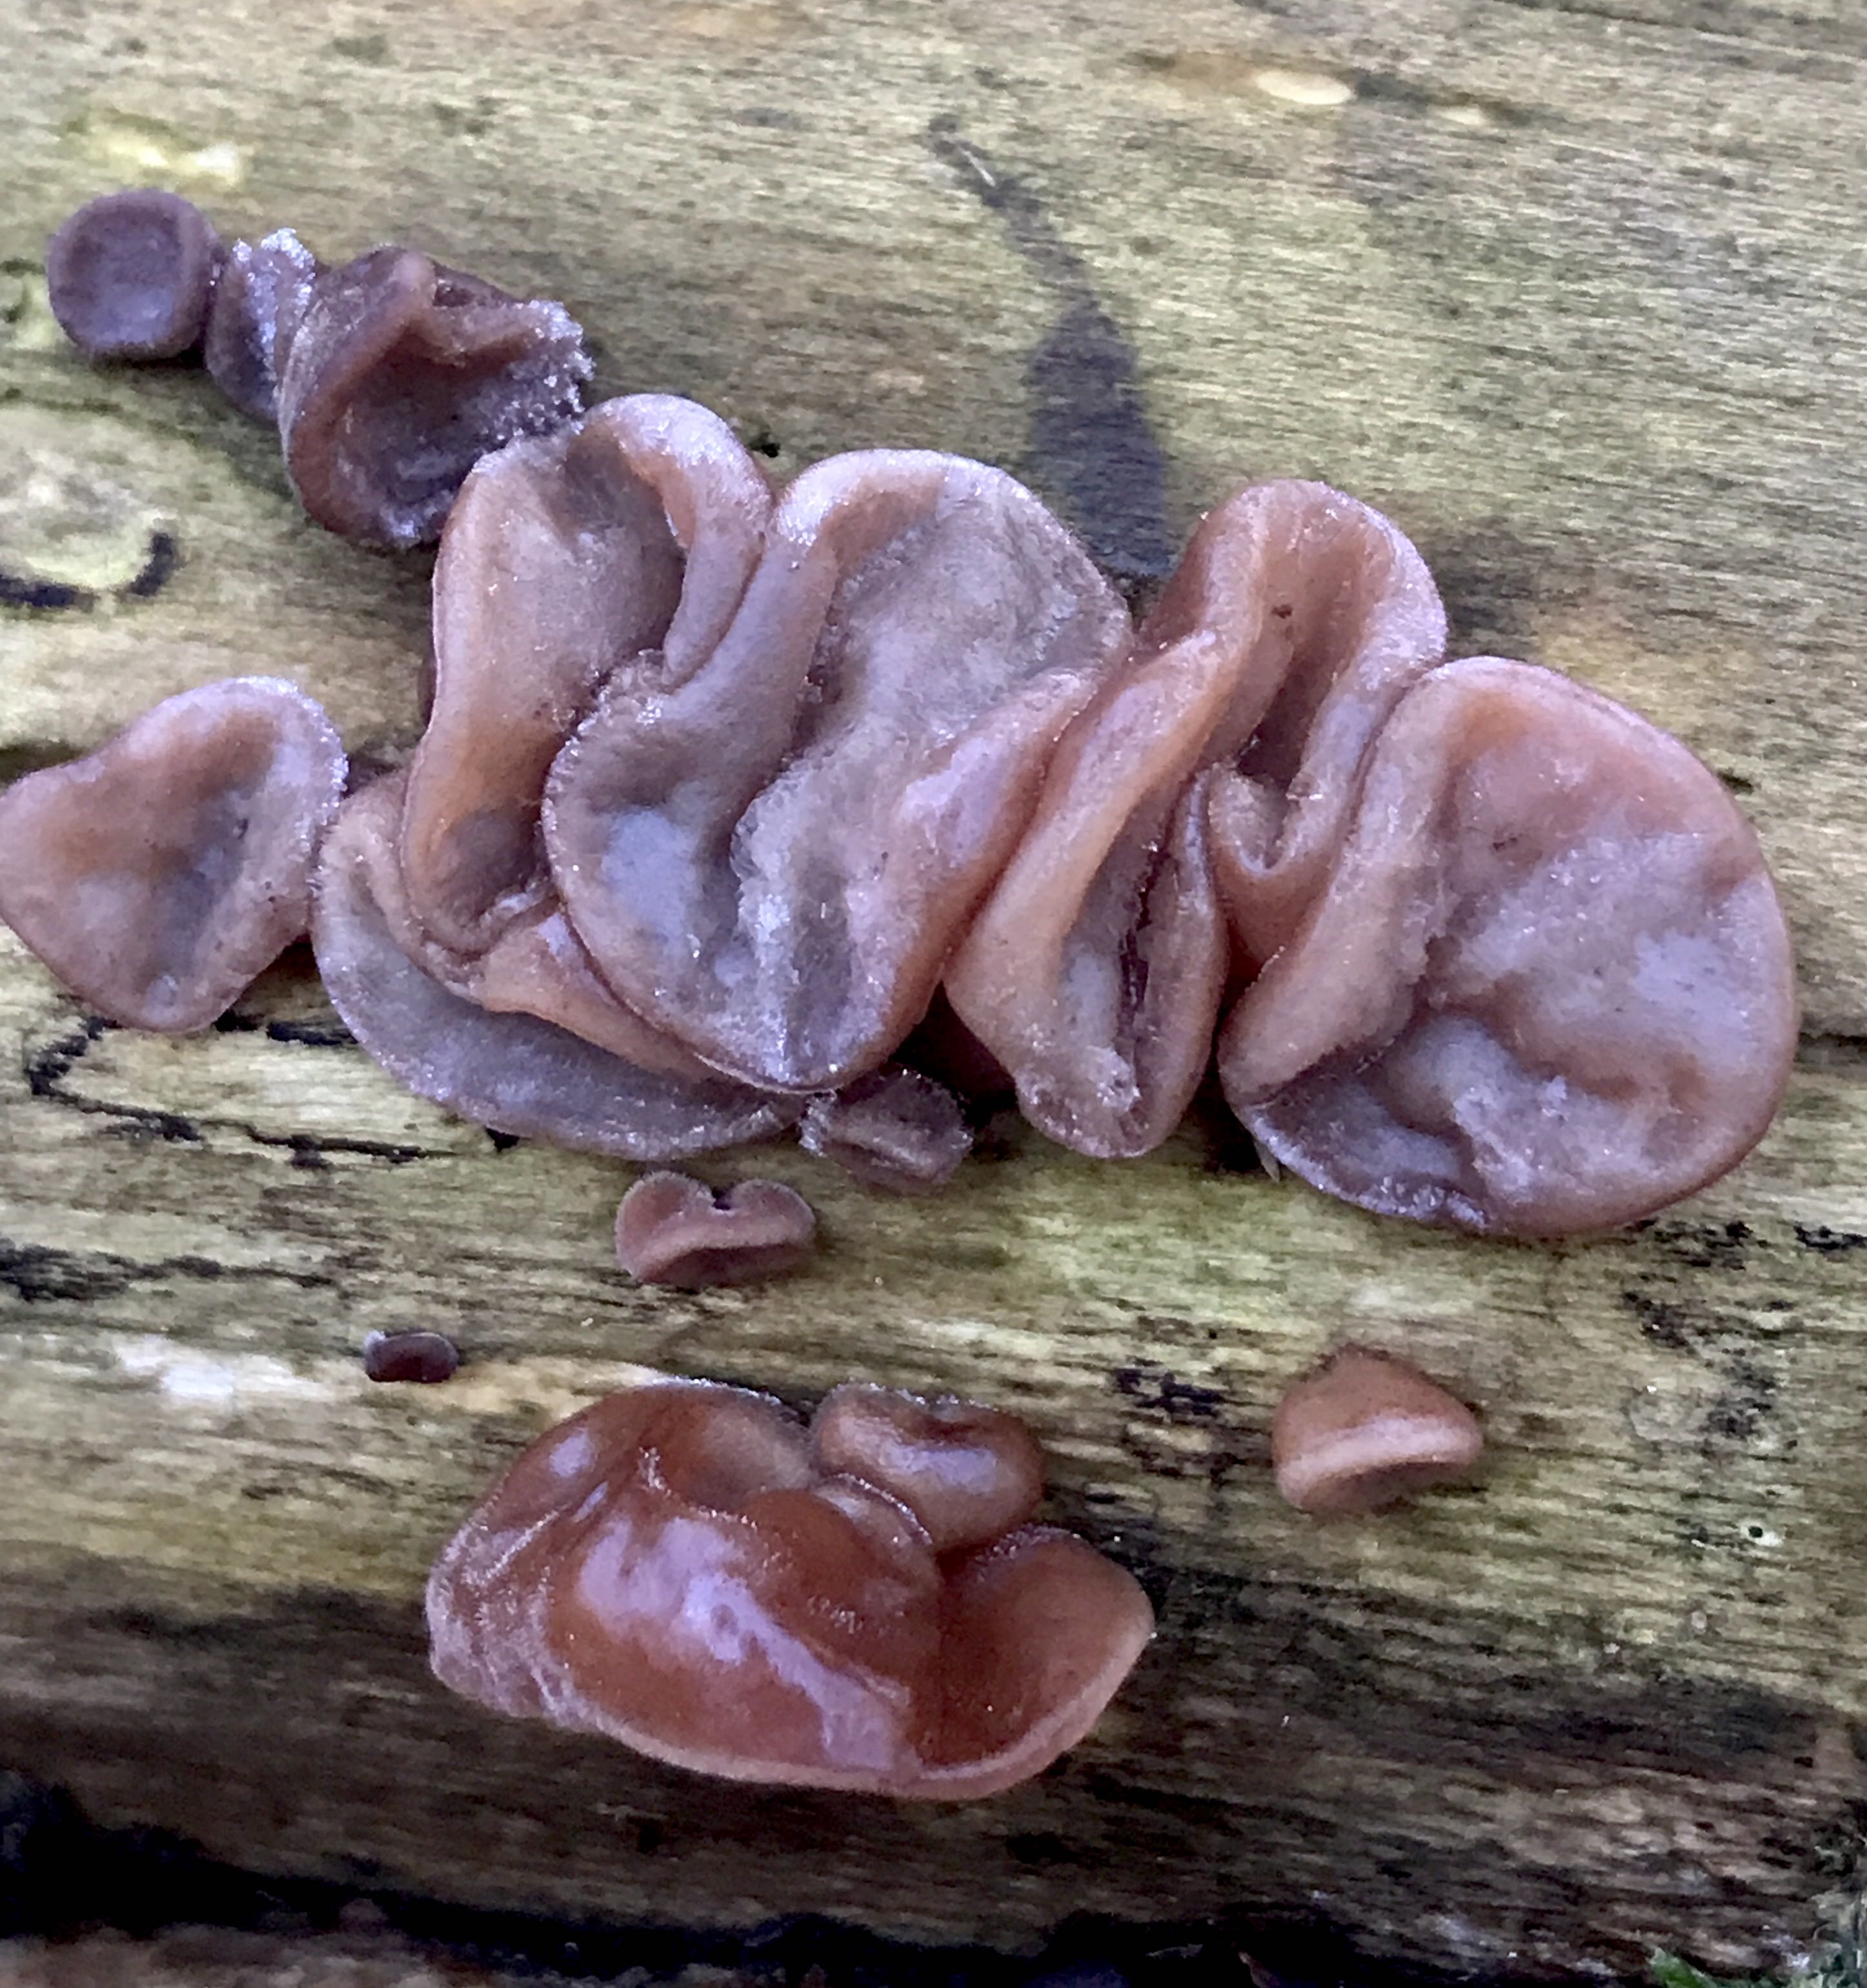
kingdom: Fungi
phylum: Basidiomycota
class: Agaricomycetes
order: Auriculariales
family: Auriculariaceae
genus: Auricularia
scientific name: Auricularia auricula-judae
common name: almindelig judasøre
